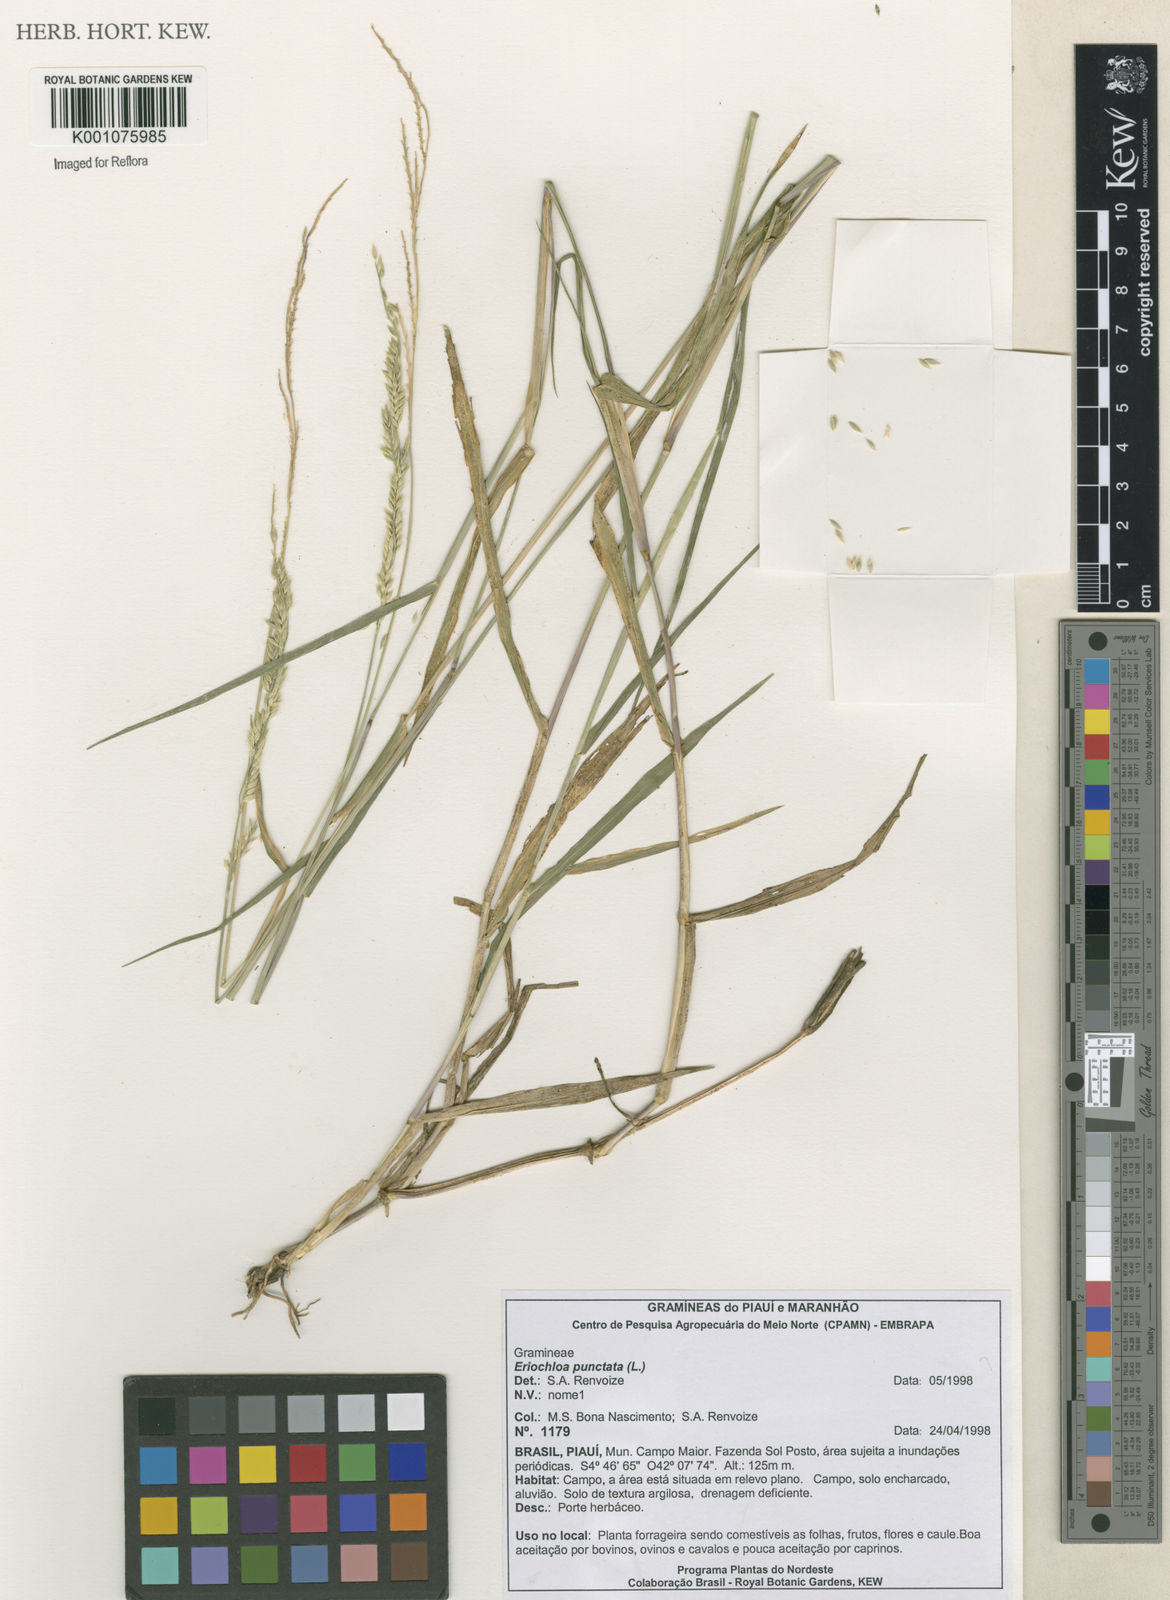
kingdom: Plantae
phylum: Tracheophyta
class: Liliopsida
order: Poales
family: Poaceae
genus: Eriochloa
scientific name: Eriochloa punctata
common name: Louisiana cupgrass
